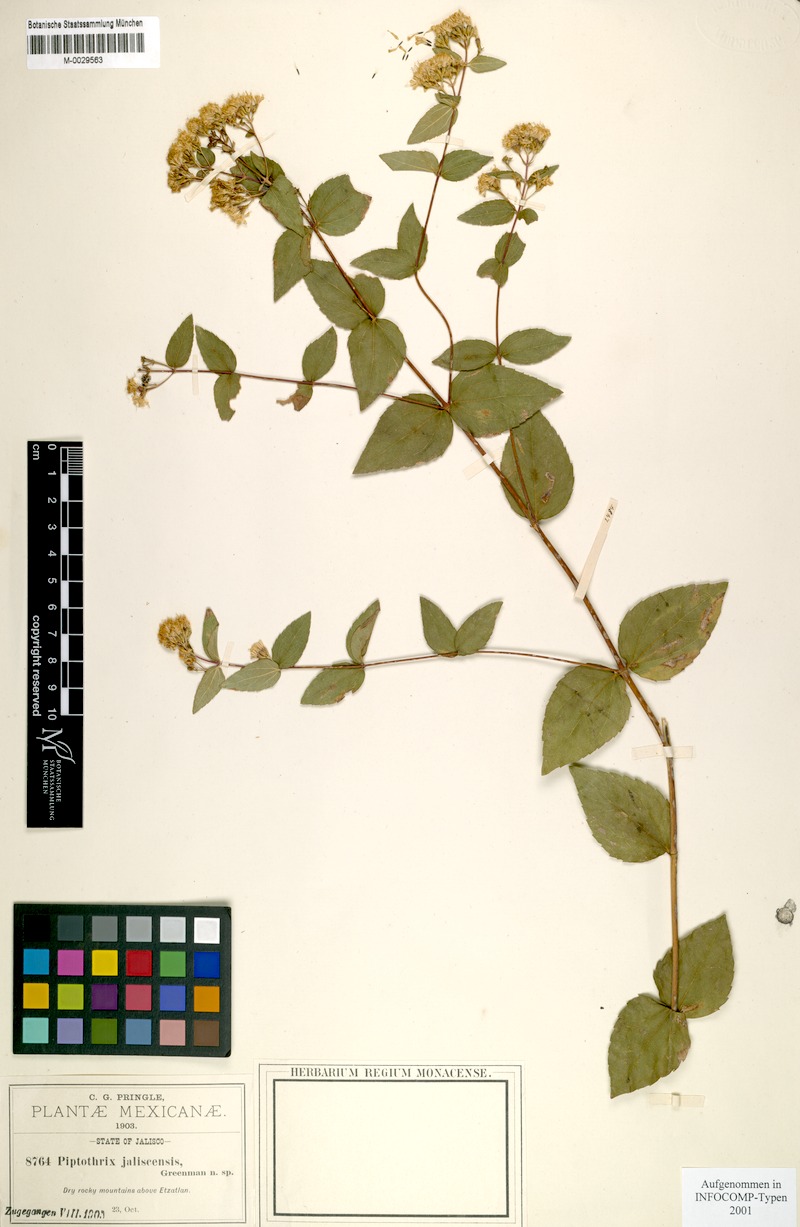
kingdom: Plantae
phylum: Tracheophyta
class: Magnoliopsida
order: Asterales
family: Asteraceae
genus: Ageratina
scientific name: Ageratina jaliscensis
